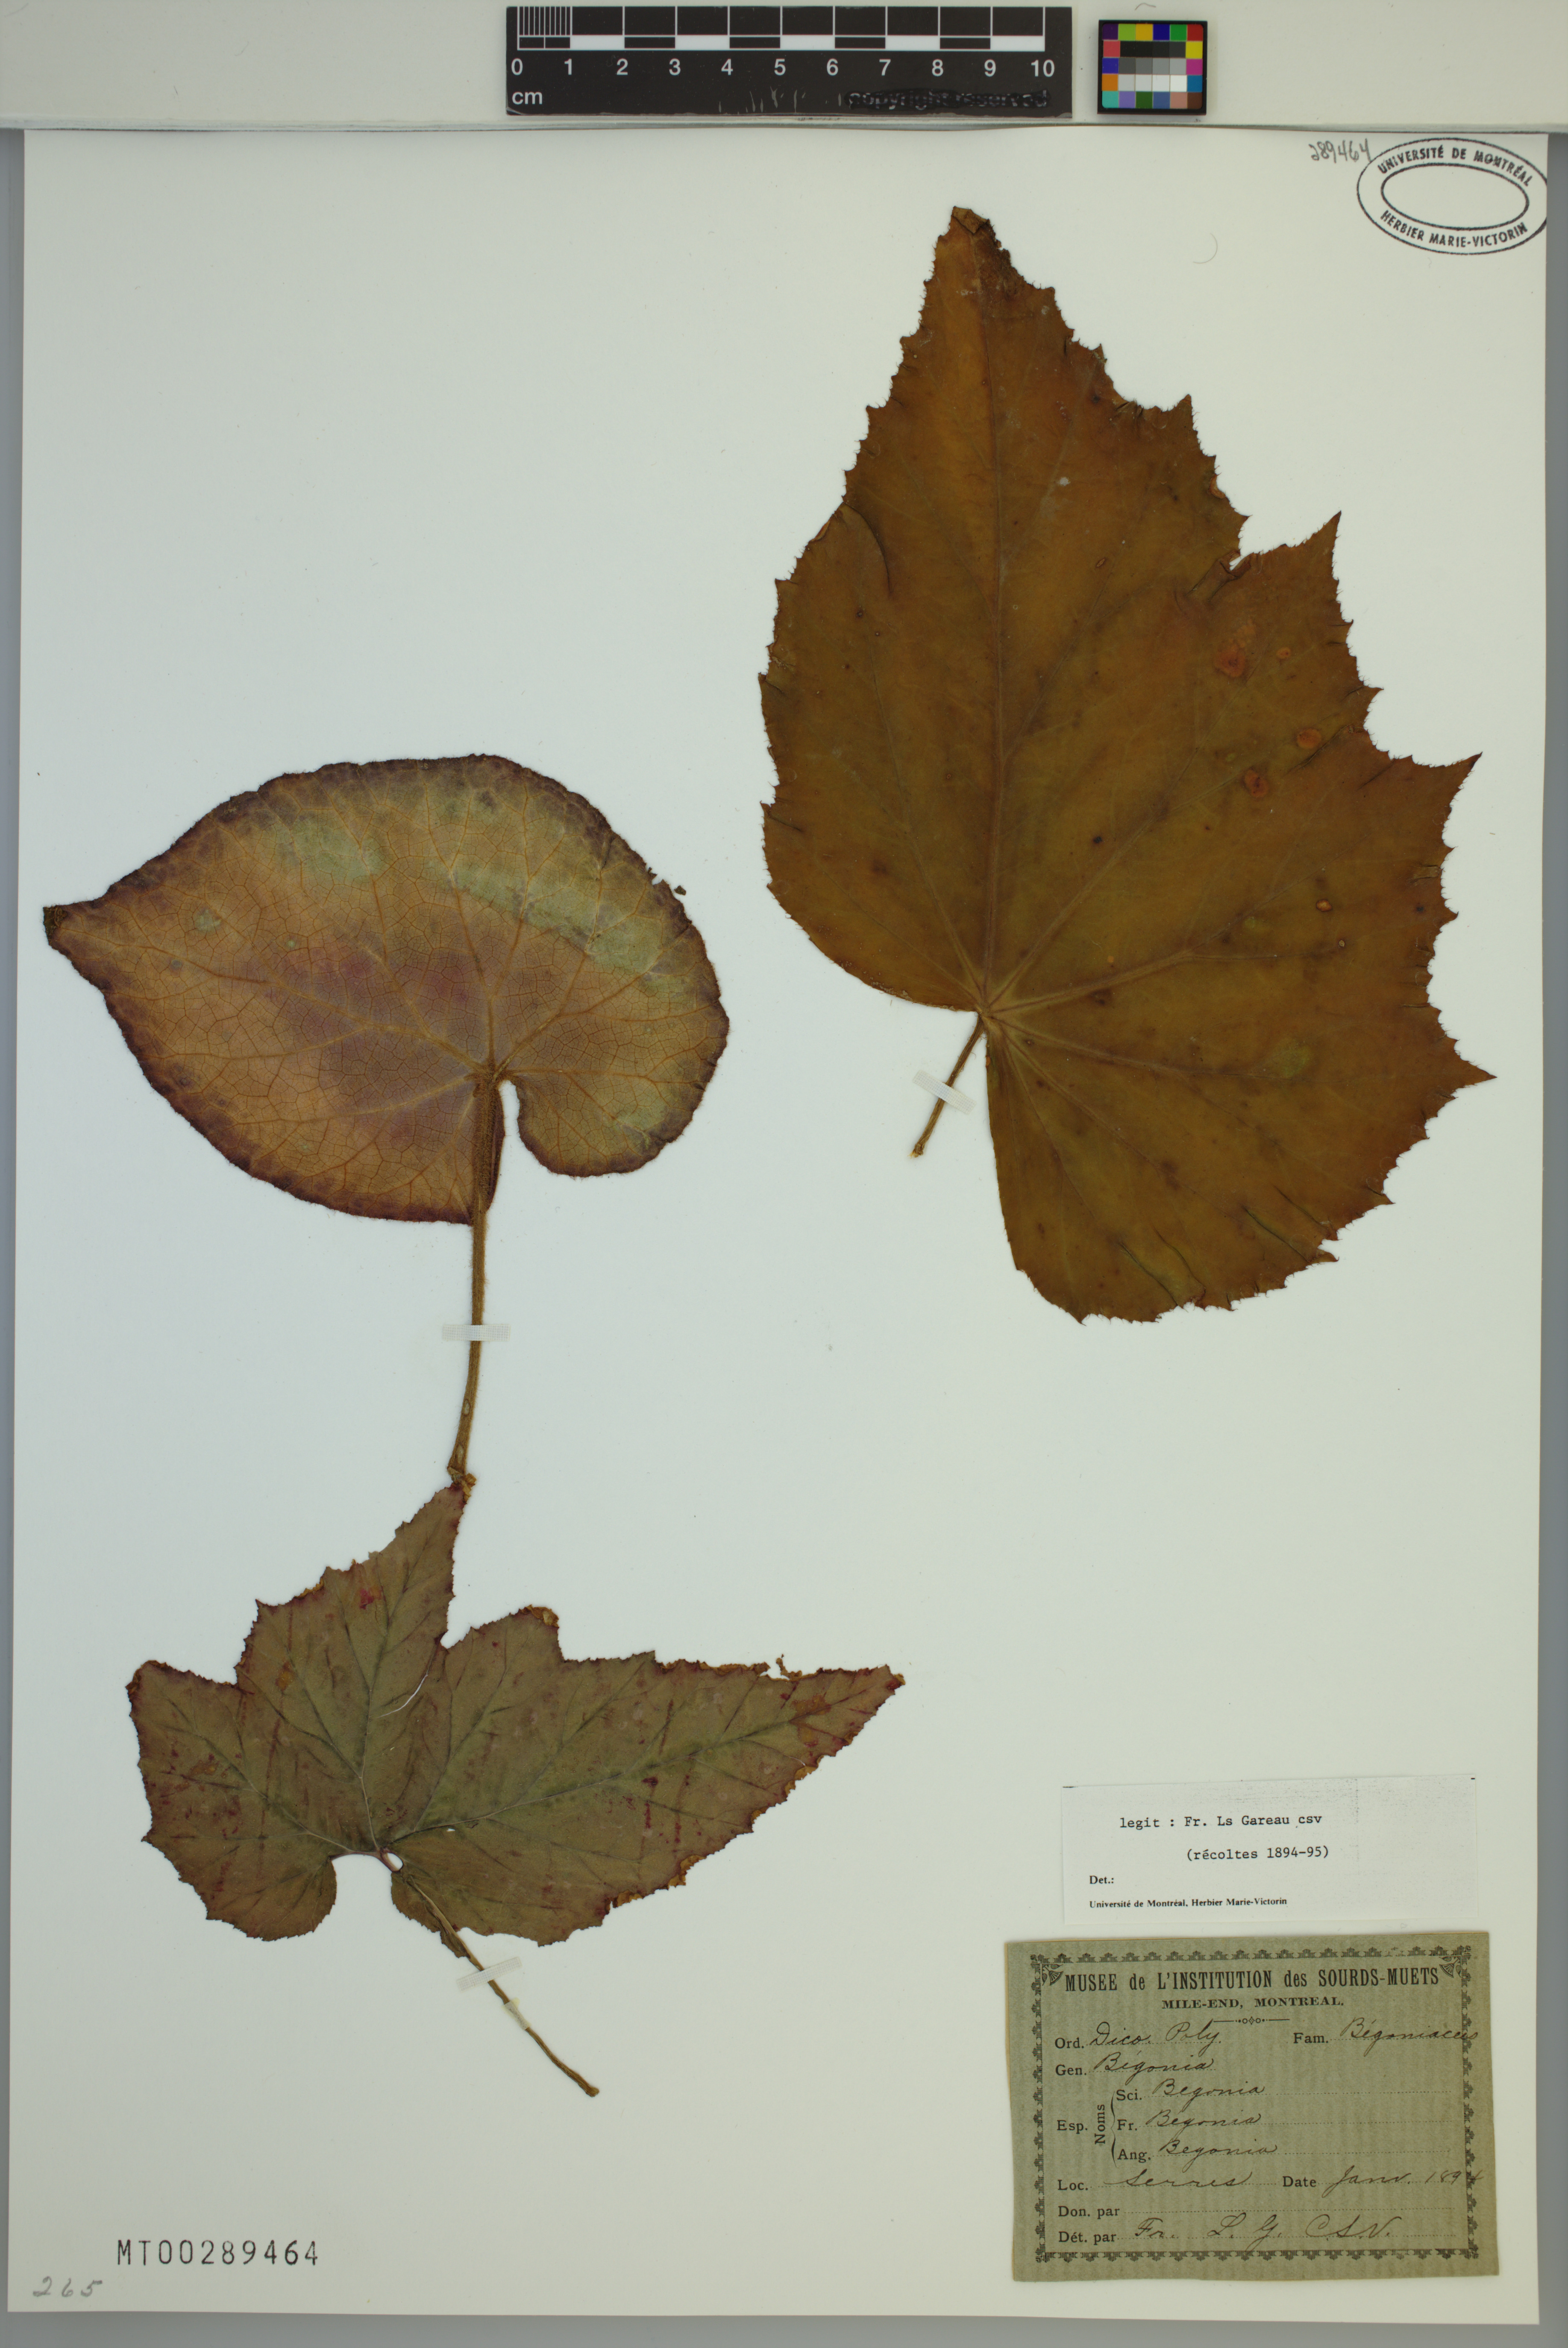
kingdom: Plantae
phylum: Tracheophyta
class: Magnoliopsida
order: Cucurbitales
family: Begoniaceae
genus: Begonia
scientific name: Begonia
